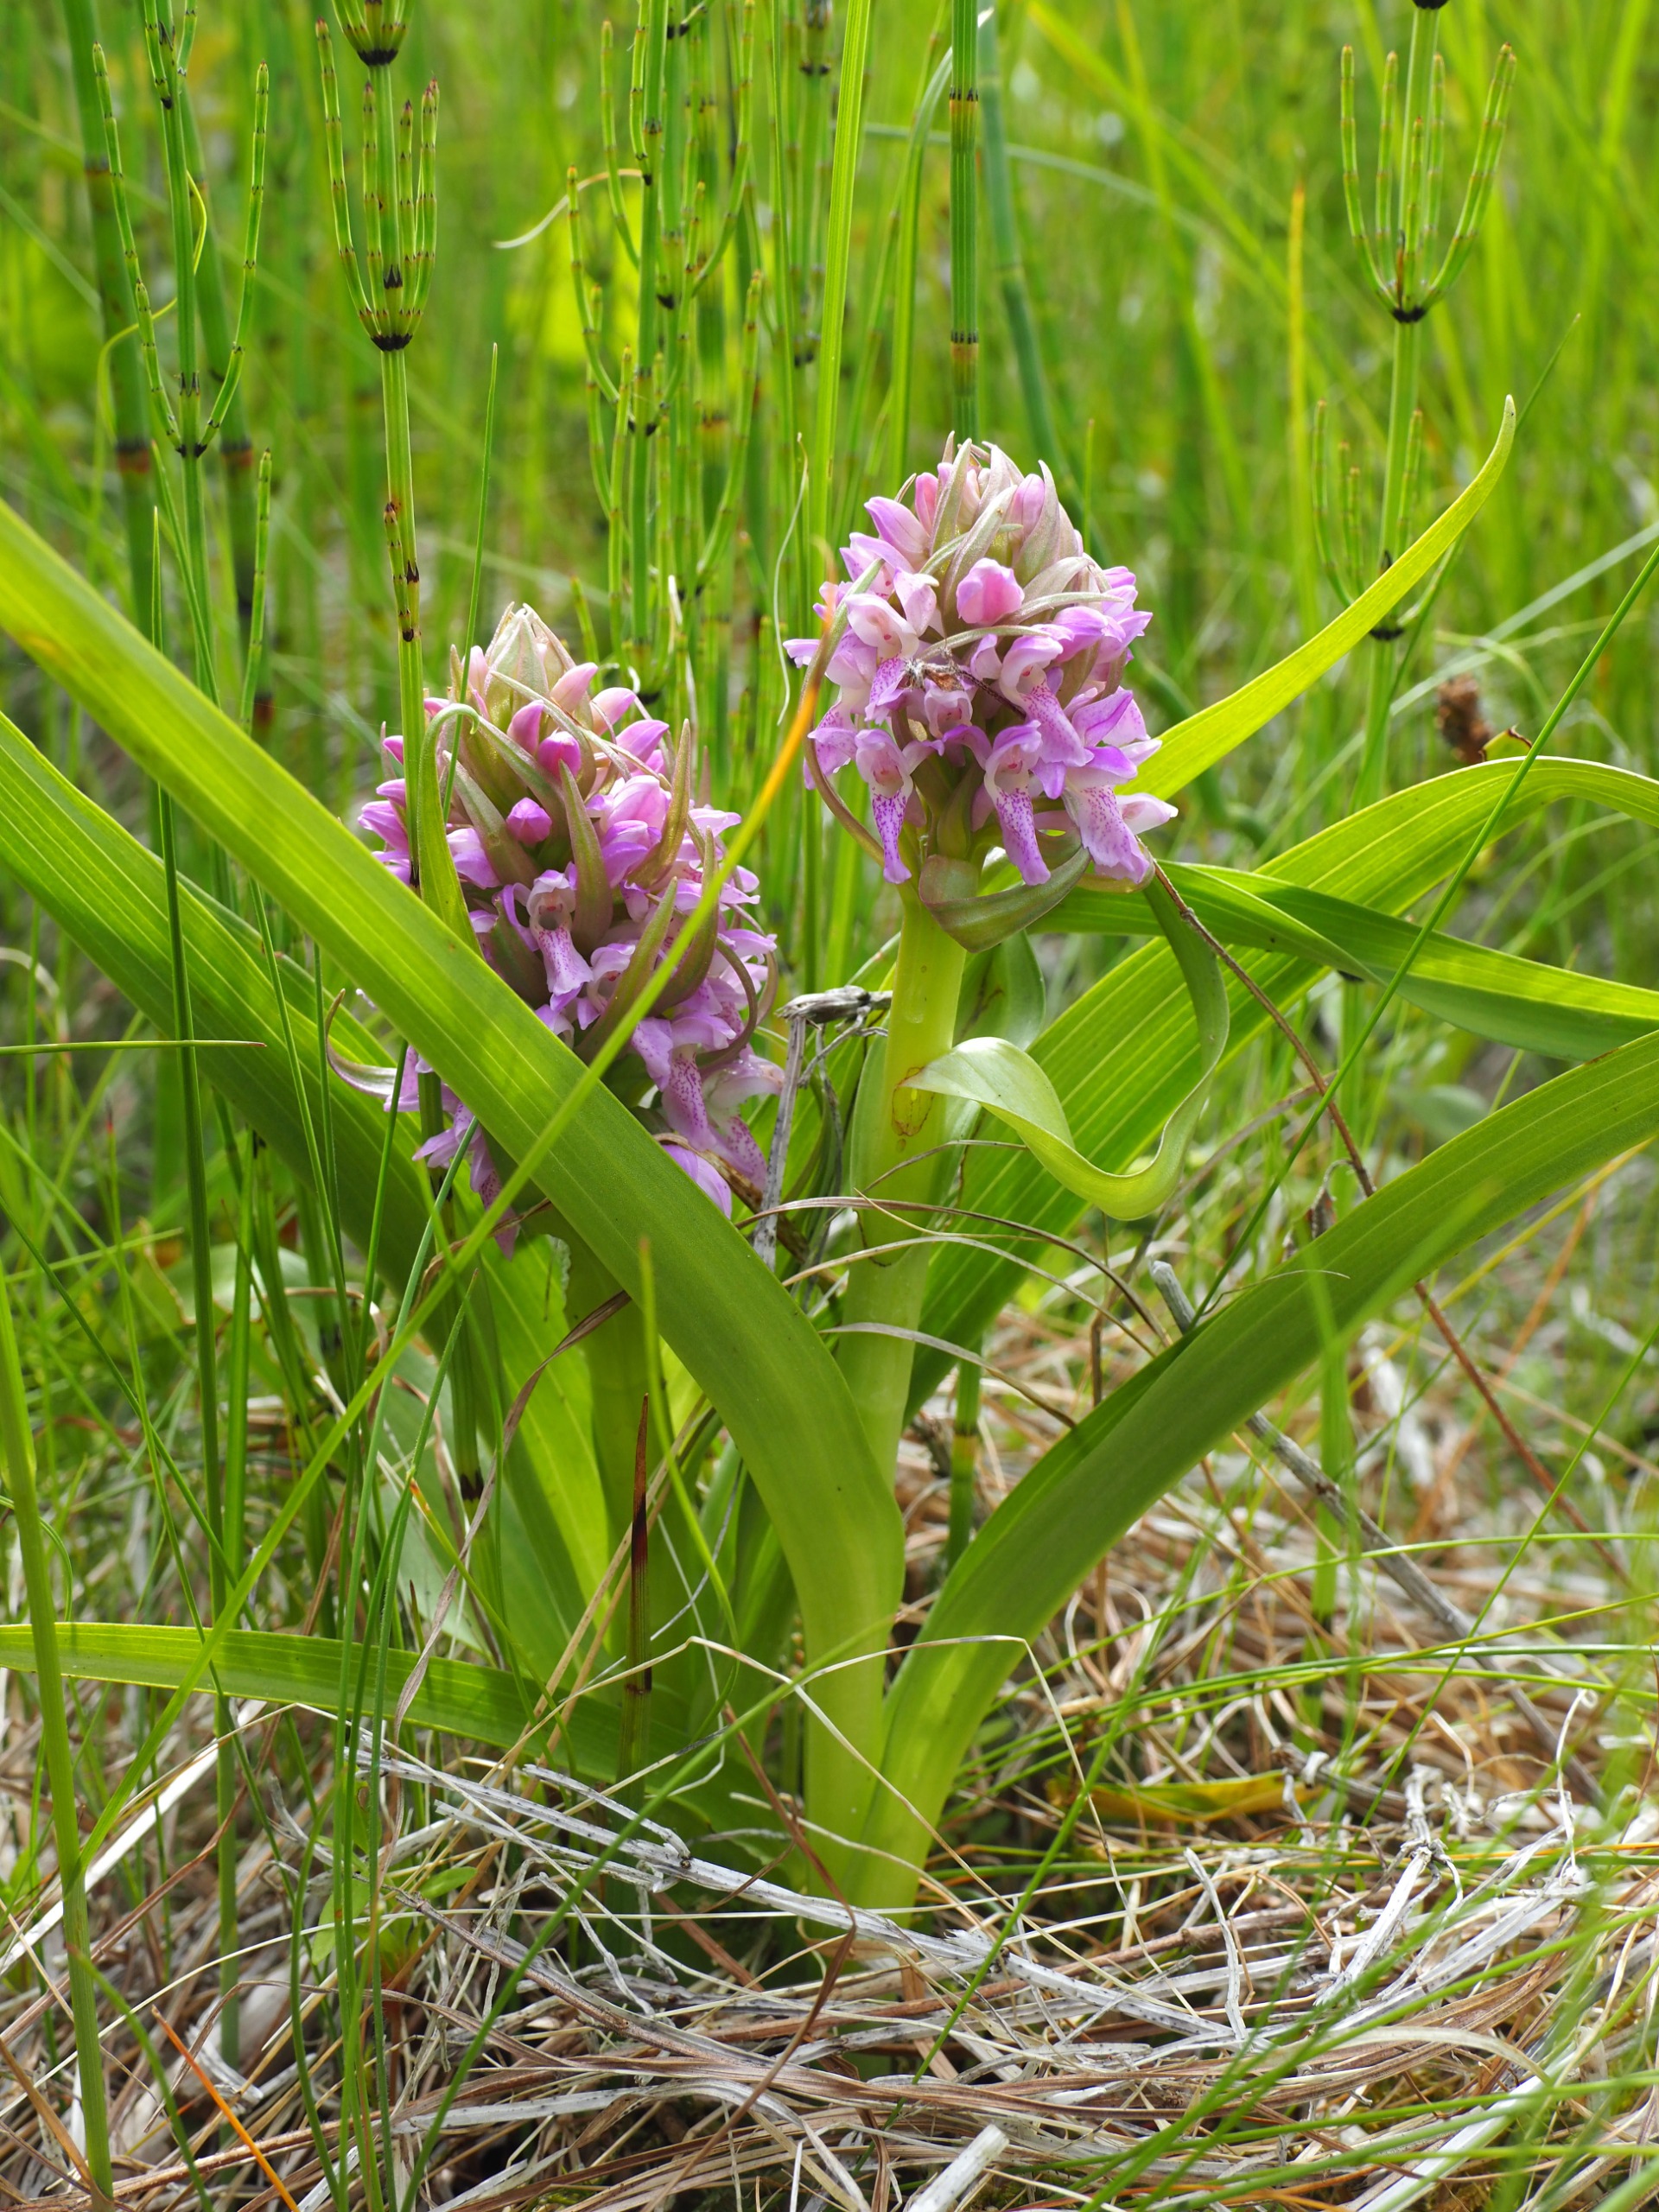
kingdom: Plantae
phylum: Tracheophyta
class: Liliopsida
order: Asparagales
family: Orchidaceae
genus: Dactylorhiza
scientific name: Dactylorhiza incarnata
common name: Kødfarvet gøgeurt
